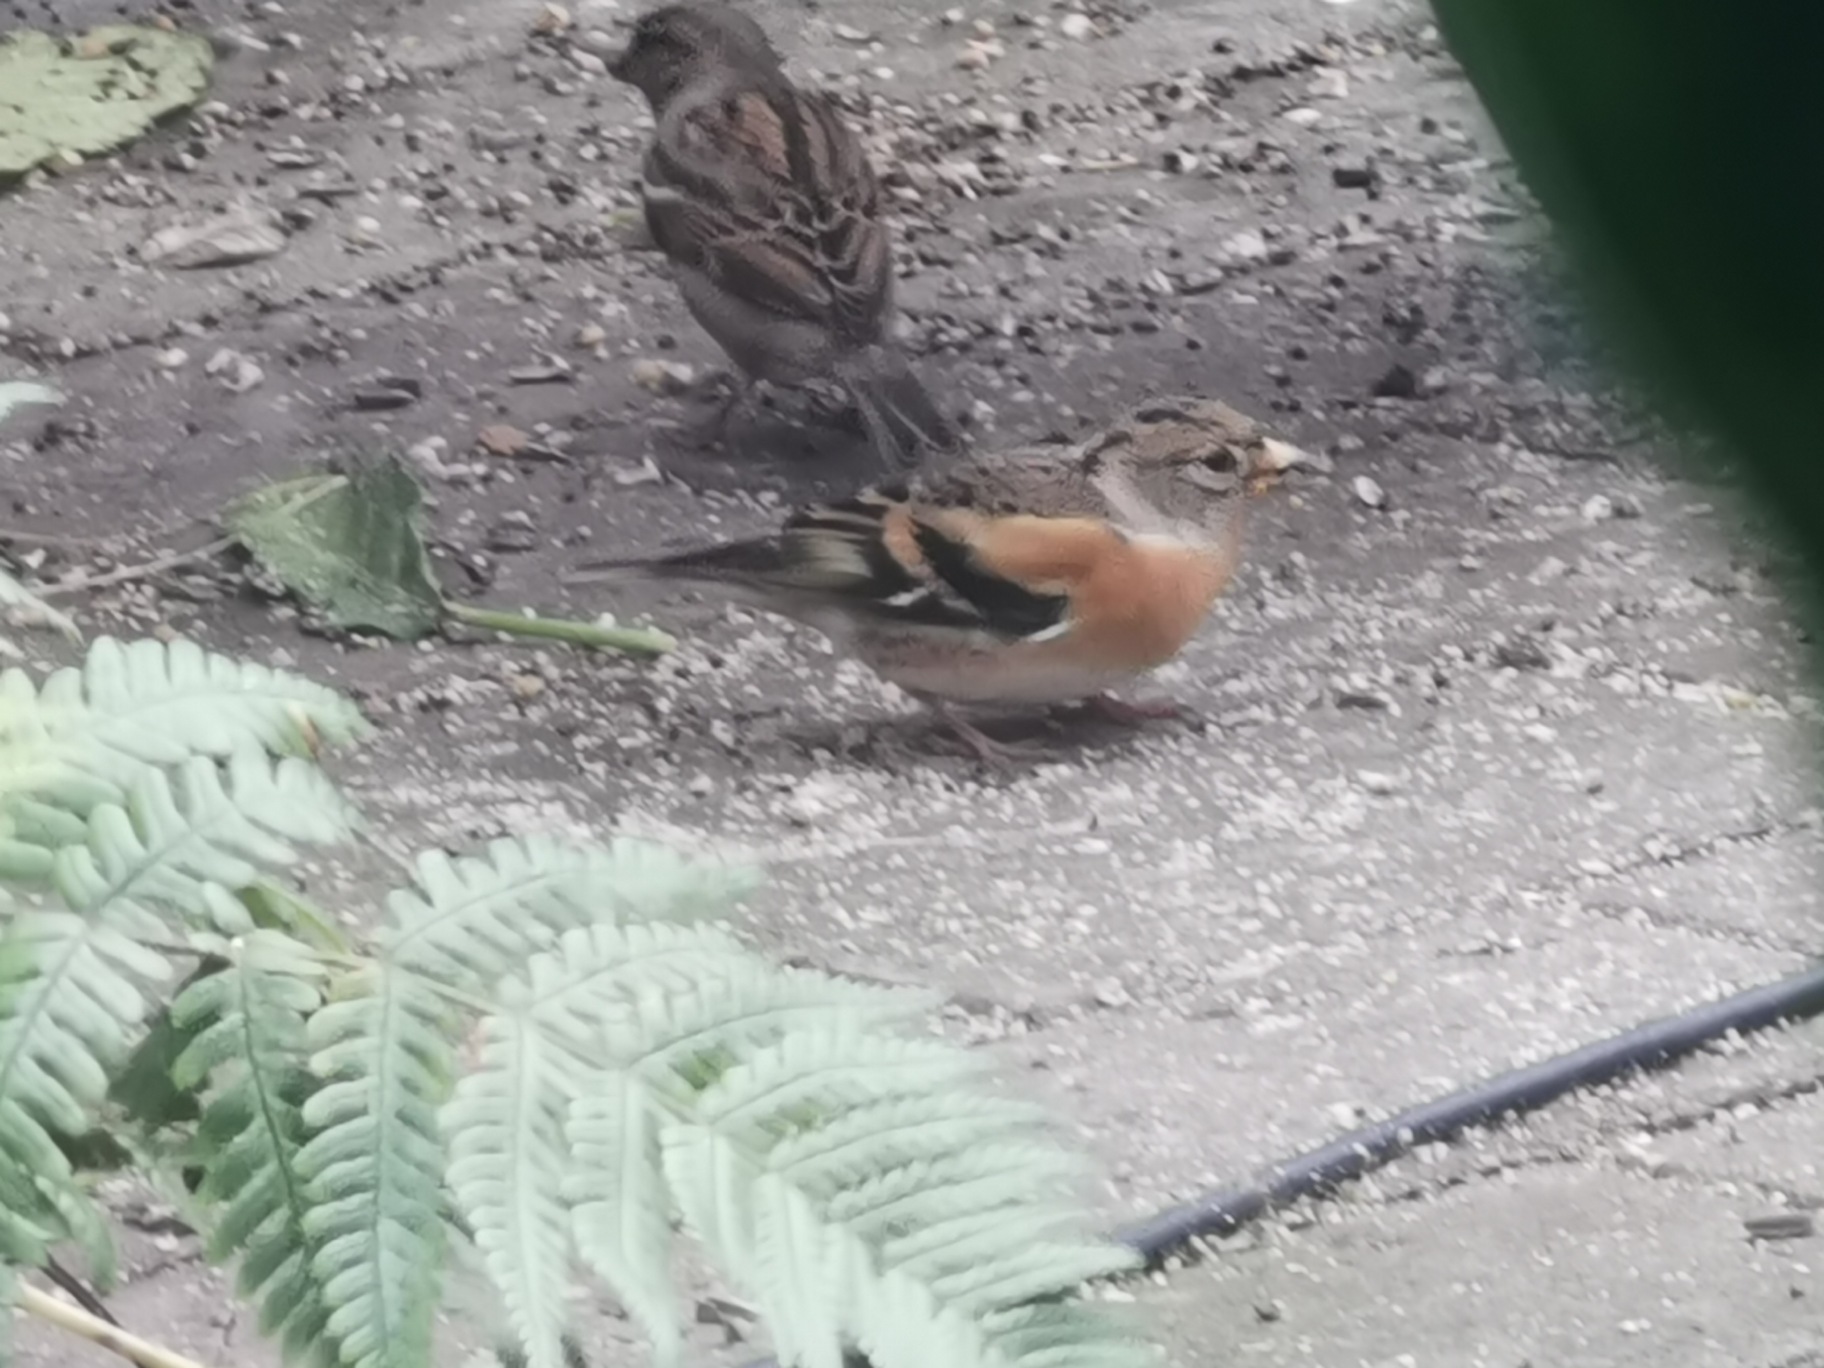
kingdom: Animalia
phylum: Chordata
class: Aves
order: Passeriformes
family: Fringillidae
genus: Fringilla
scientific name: Fringilla montifringilla
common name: Kvækerfinke
